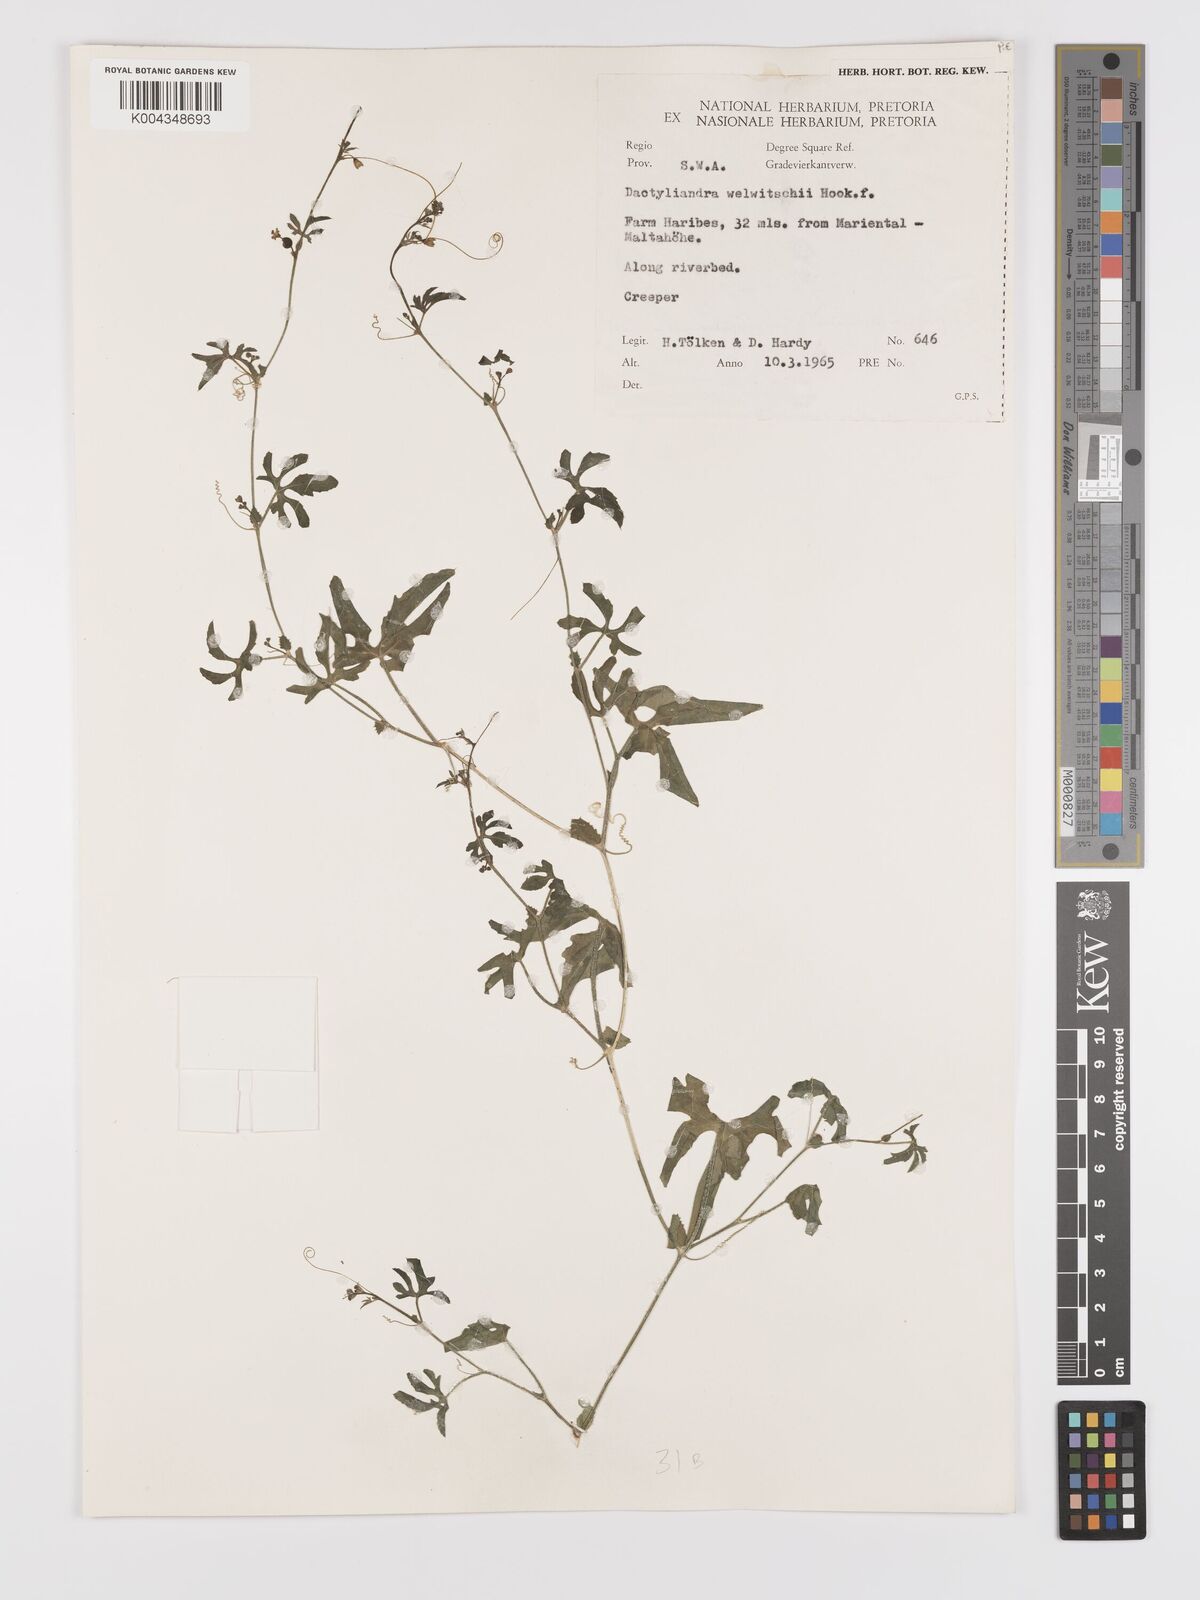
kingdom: Plantae
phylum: Tracheophyta
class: Magnoliopsida
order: Cucurbitales
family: Cucurbitaceae
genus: Dactyliandra
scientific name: Dactyliandra welwitschii
